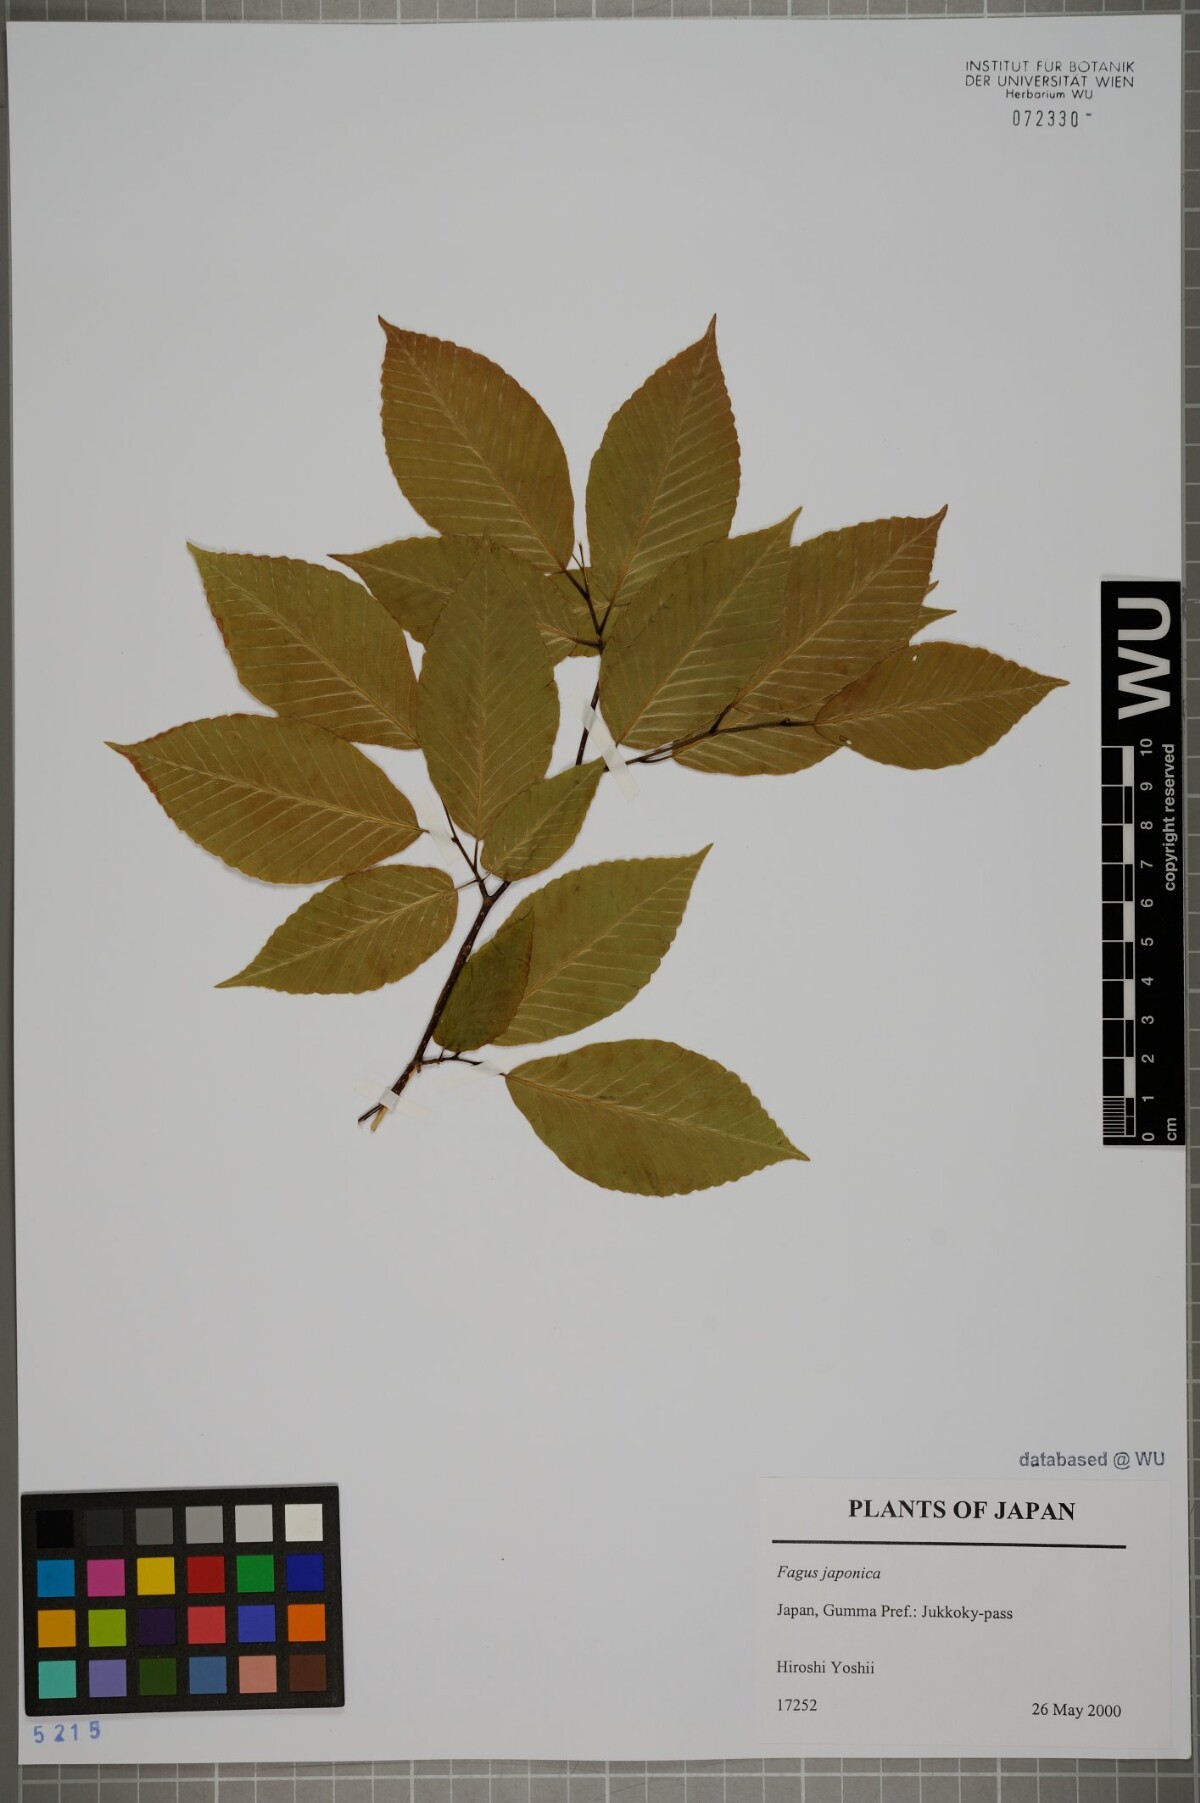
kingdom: Plantae
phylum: Tracheophyta
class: Magnoliopsida
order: Fagales
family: Fagaceae
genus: Fagus
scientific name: Fagus japonica
